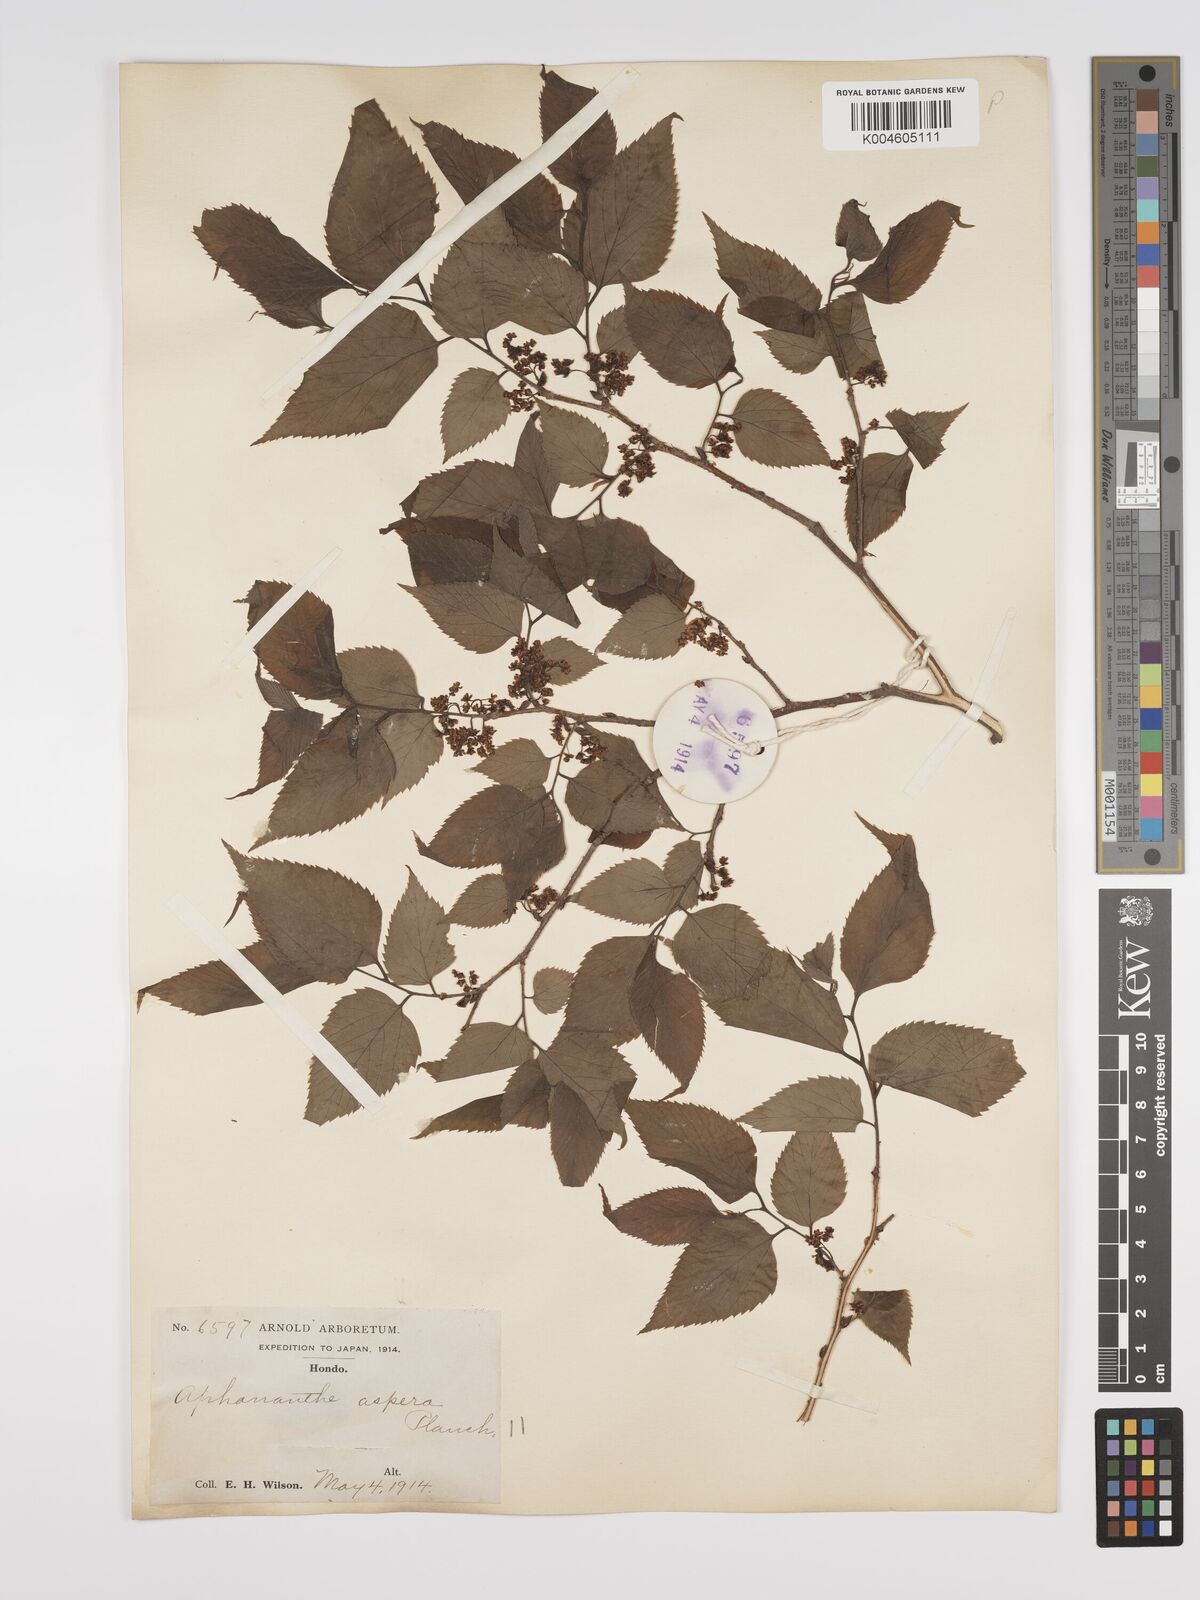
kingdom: Plantae
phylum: Tracheophyta
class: Magnoliopsida
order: Rosales
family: Cannabaceae
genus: Aphananthe
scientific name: Aphananthe aspera
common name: Mukutree
